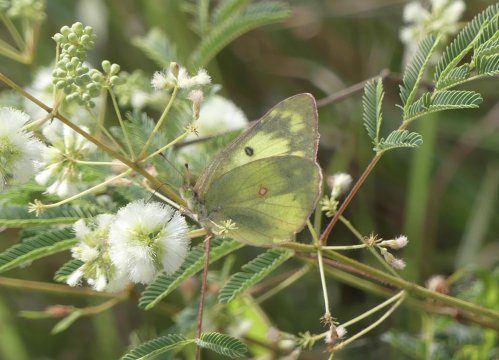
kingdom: Animalia
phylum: Arthropoda
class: Insecta
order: Lepidoptera
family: Pieridae
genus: Colias
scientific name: Colias philodice
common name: Clouded Sulphur
